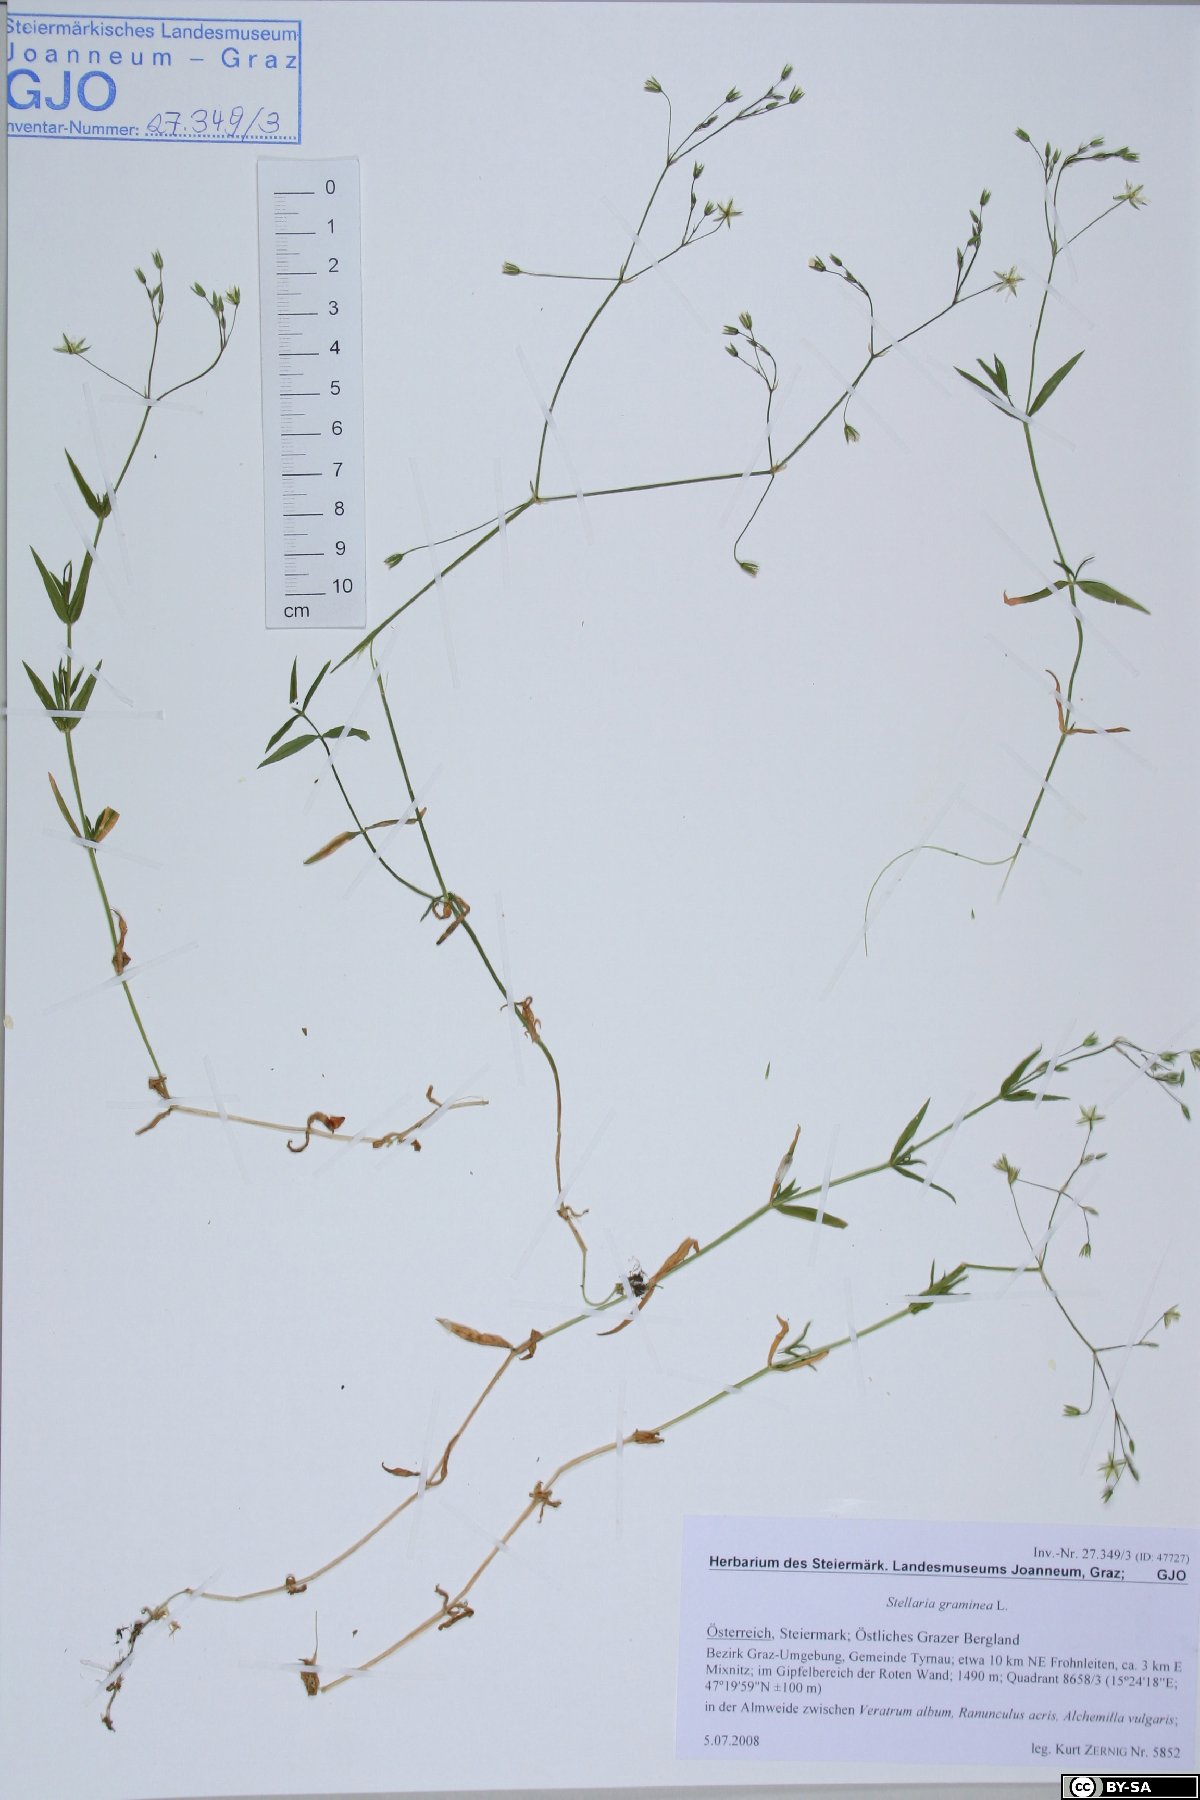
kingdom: Plantae
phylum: Tracheophyta
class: Magnoliopsida
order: Caryophyllales
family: Caryophyllaceae
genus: Stellaria
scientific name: Stellaria graminea
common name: Grass-like starwort
